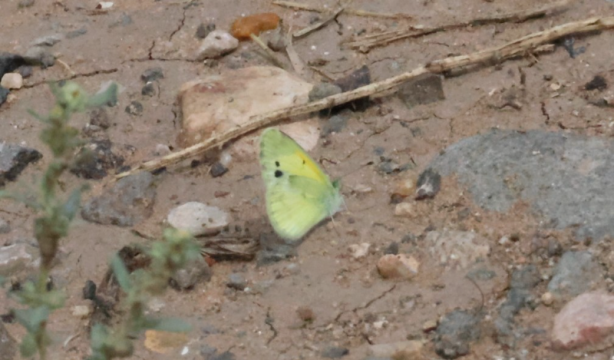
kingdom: Animalia
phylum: Arthropoda
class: Insecta
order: Lepidoptera
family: Pieridae
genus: Nathalis
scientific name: Nathalis iole
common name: Dainty Sulphur
